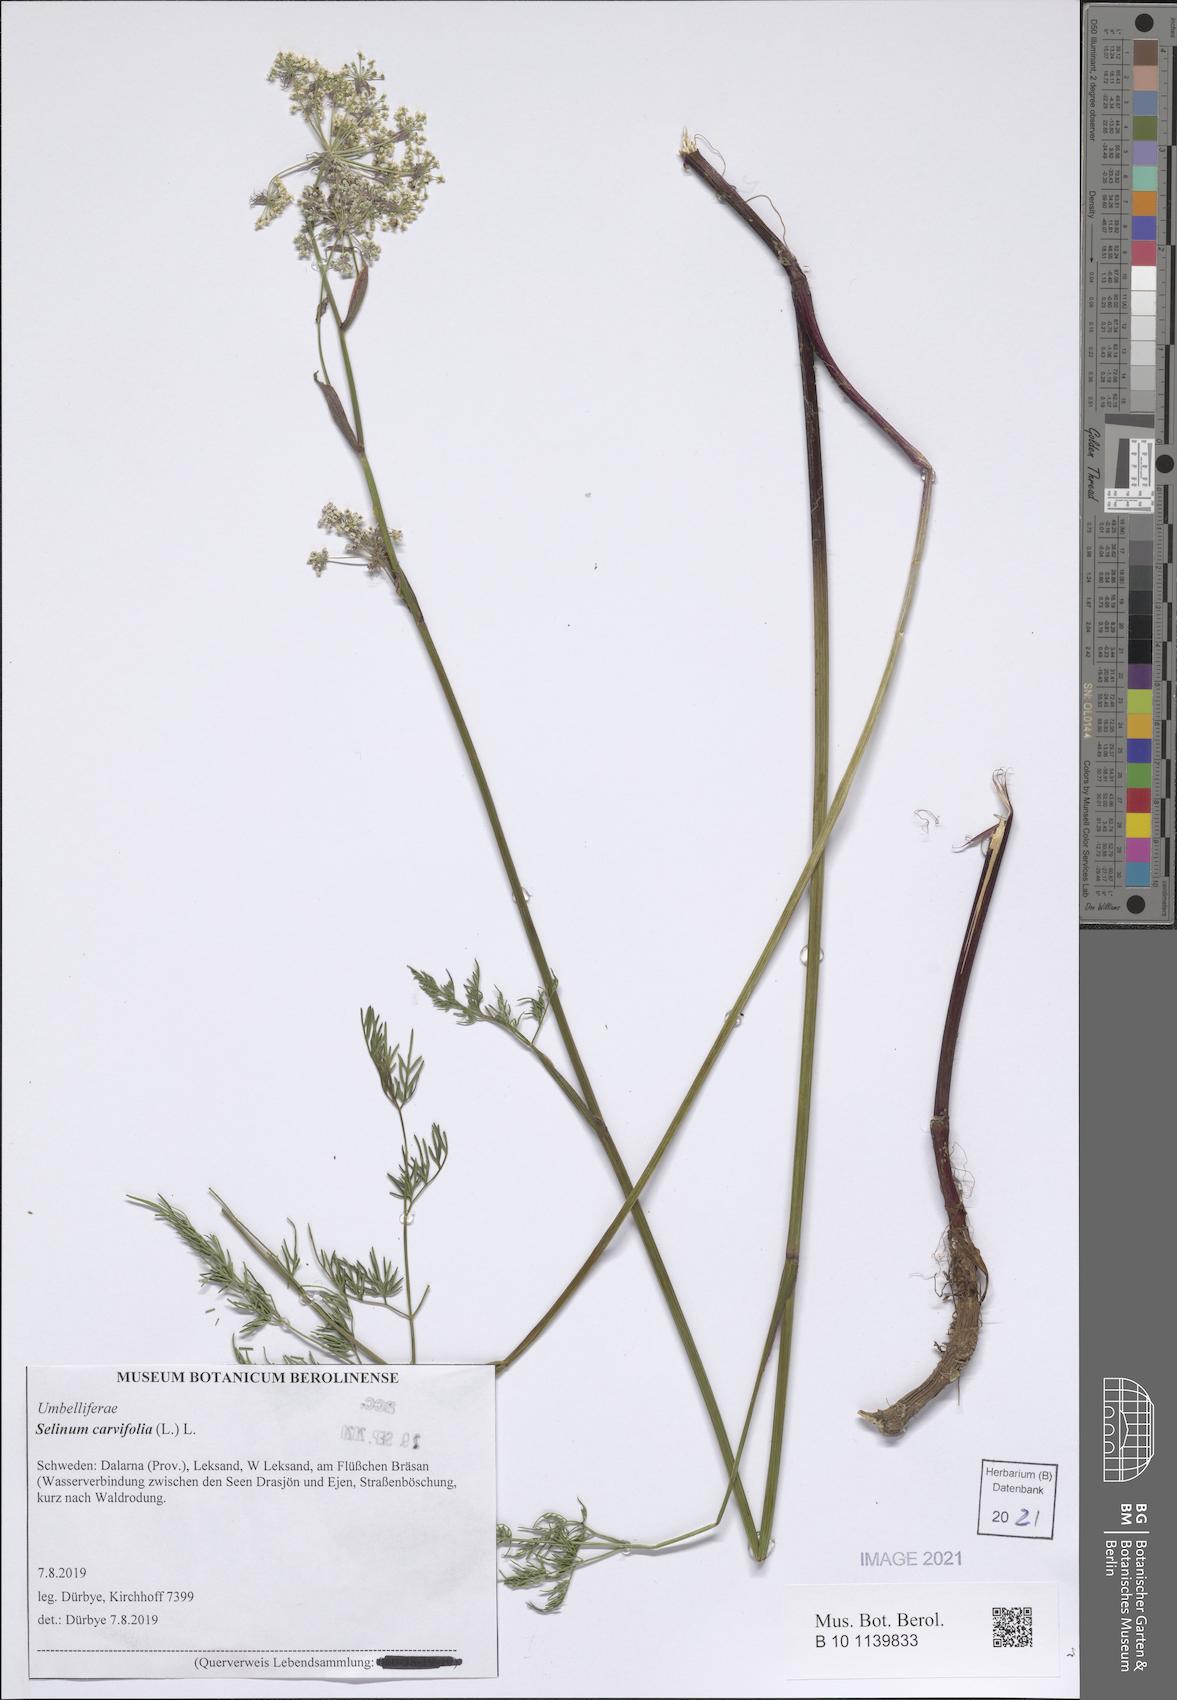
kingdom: Plantae
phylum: Tracheophyta
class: Magnoliopsida
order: Apiales
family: Apiaceae
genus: Selinum
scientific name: Selinum carvifolia
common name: Cambridge milk-parsley
